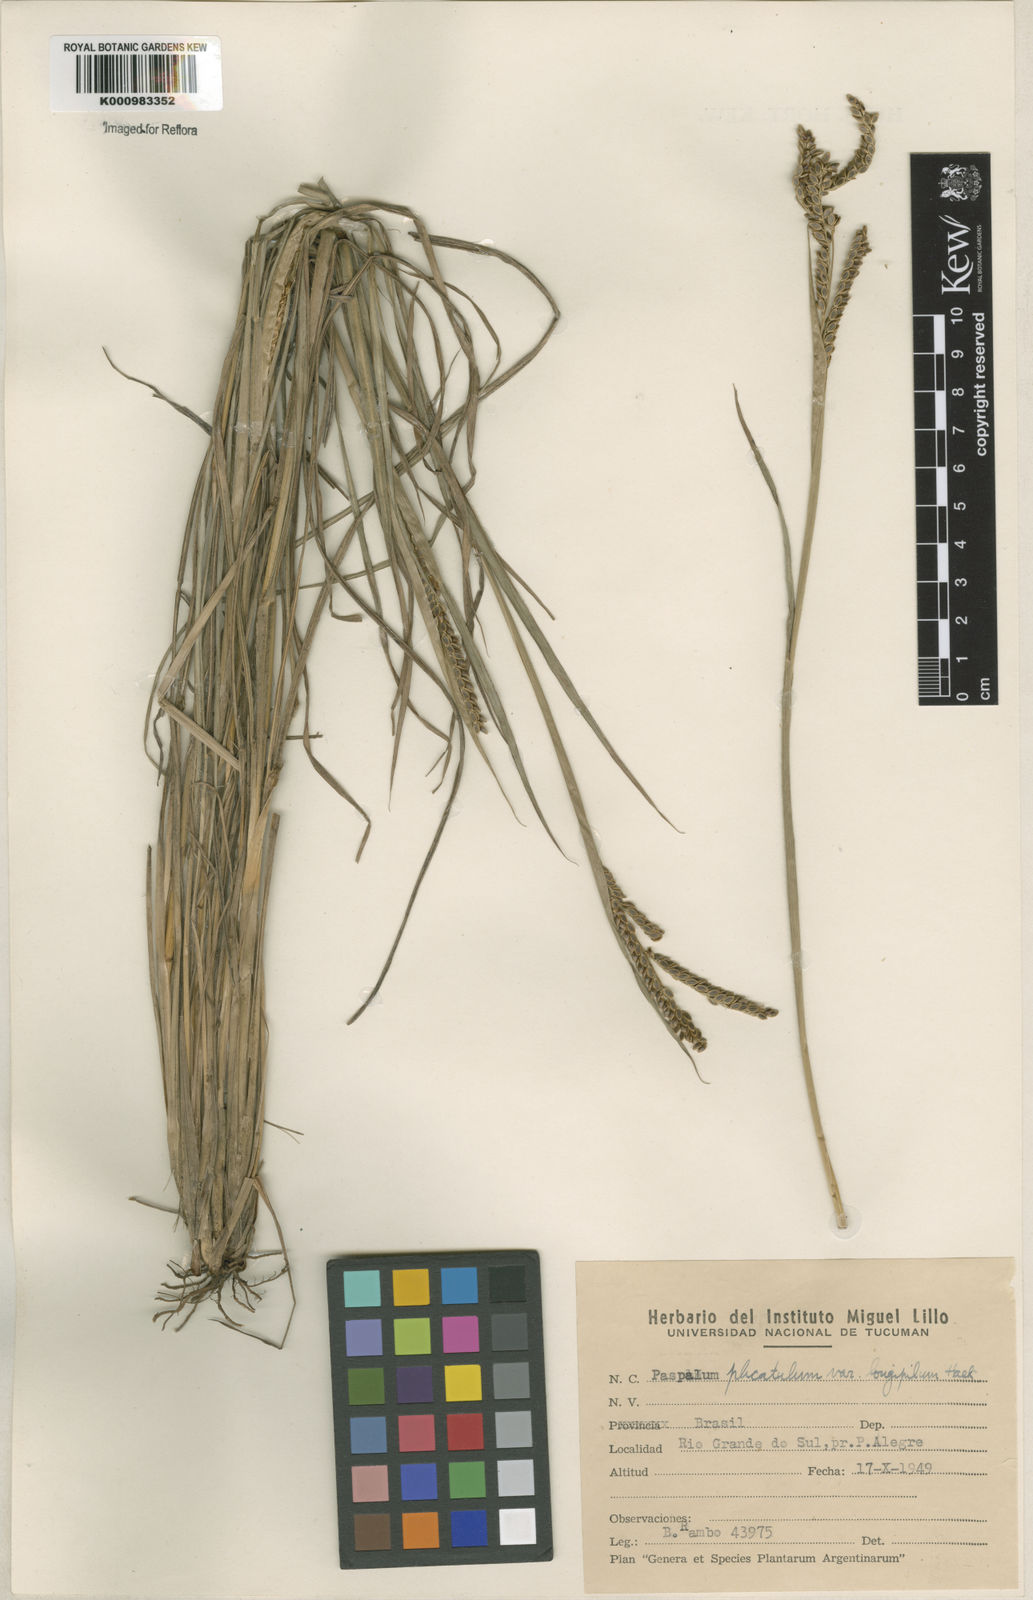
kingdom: Plantae
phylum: Tracheophyta
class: Liliopsida
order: Poales
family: Poaceae
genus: Paspalum
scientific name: Paspalum plicatulum
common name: Top paspalum
